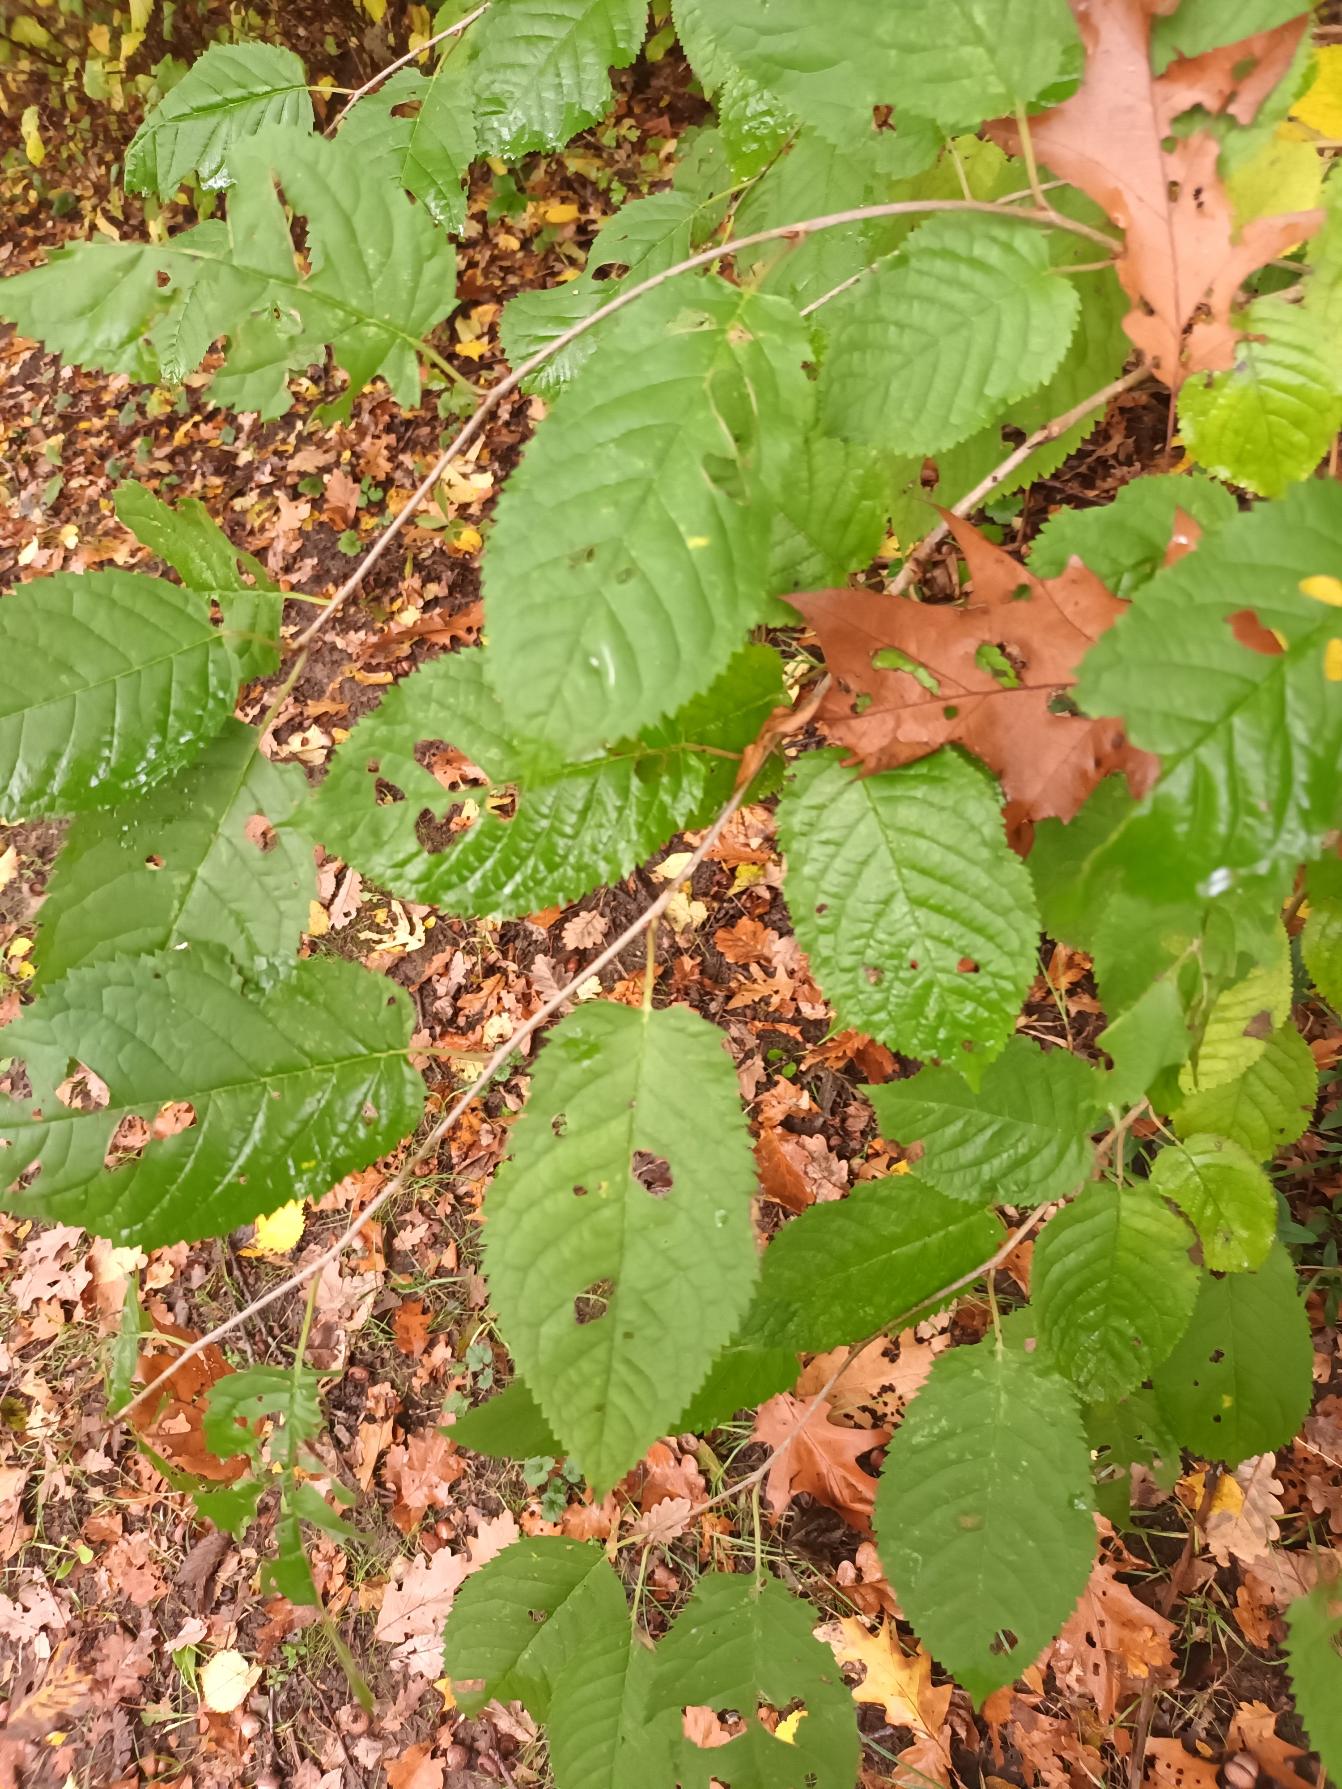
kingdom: Plantae
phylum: Tracheophyta
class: Magnoliopsida
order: Rosales
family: Rosaceae
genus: Prunus
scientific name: Prunus avium
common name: Fugle-kirsebær
